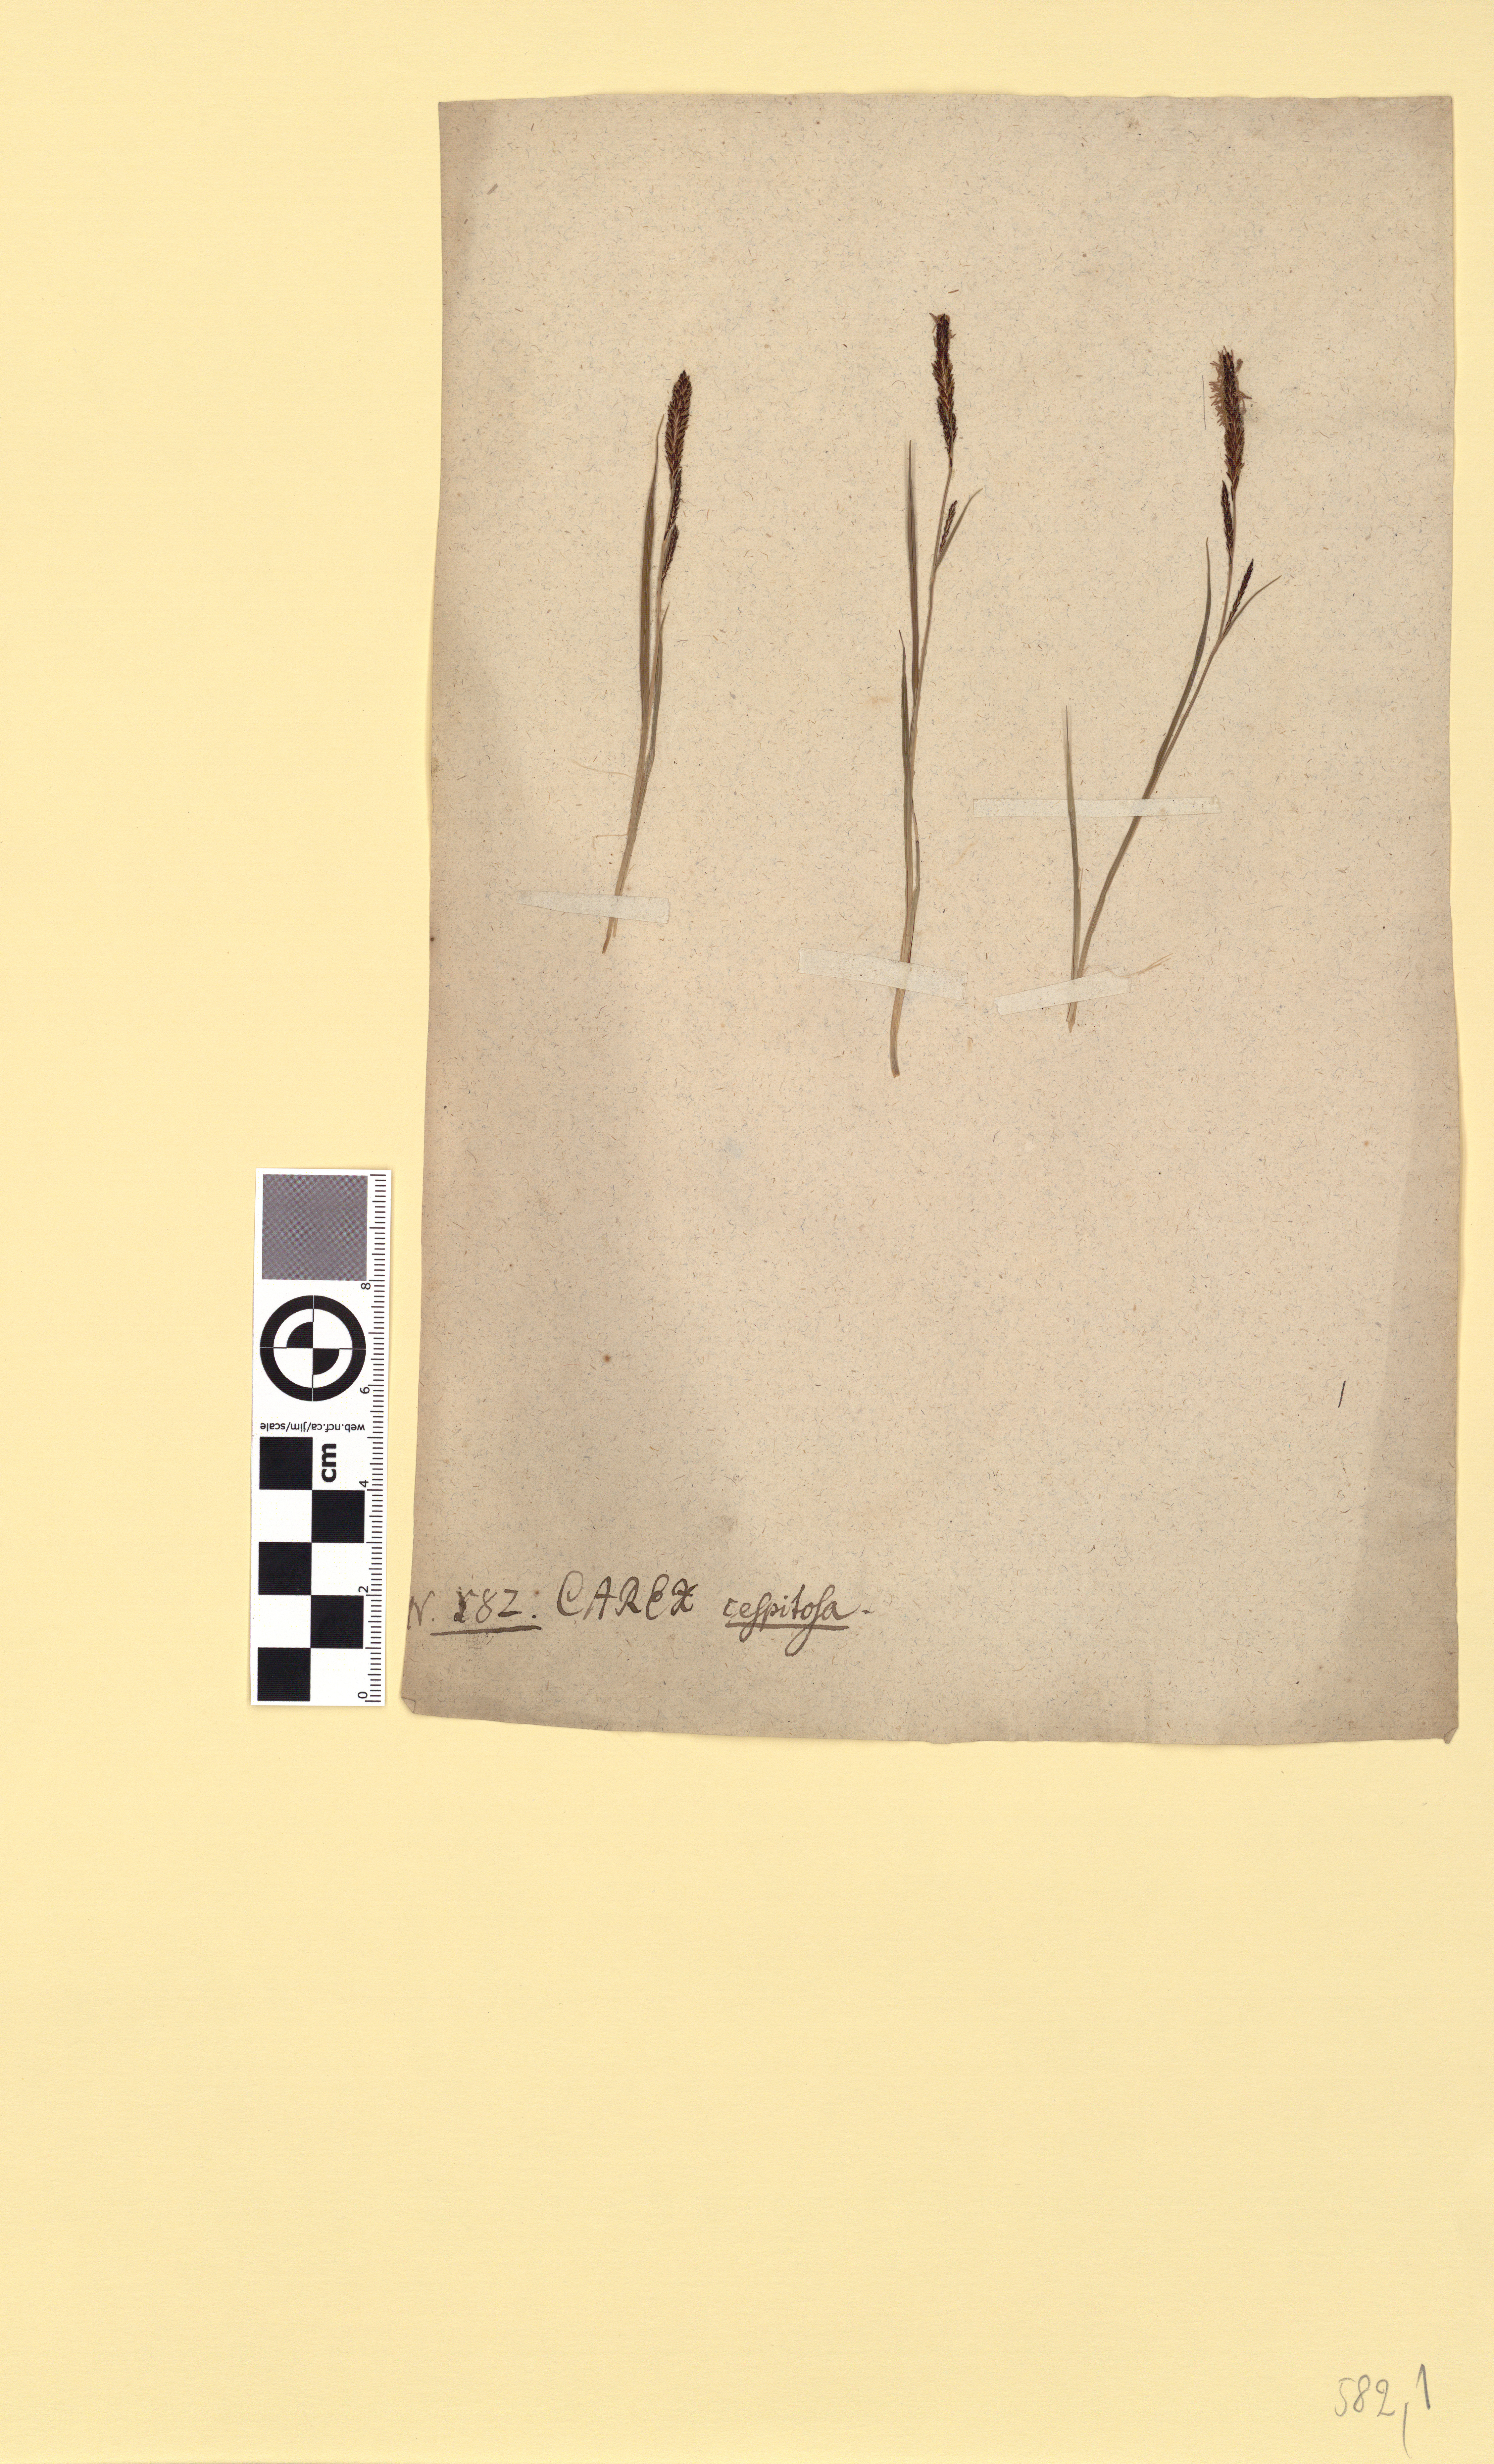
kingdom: Plantae
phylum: Tracheophyta
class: Liliopsida
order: Poales
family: Cyperaceae
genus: Carex
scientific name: Carex nigra
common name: Common sedge
